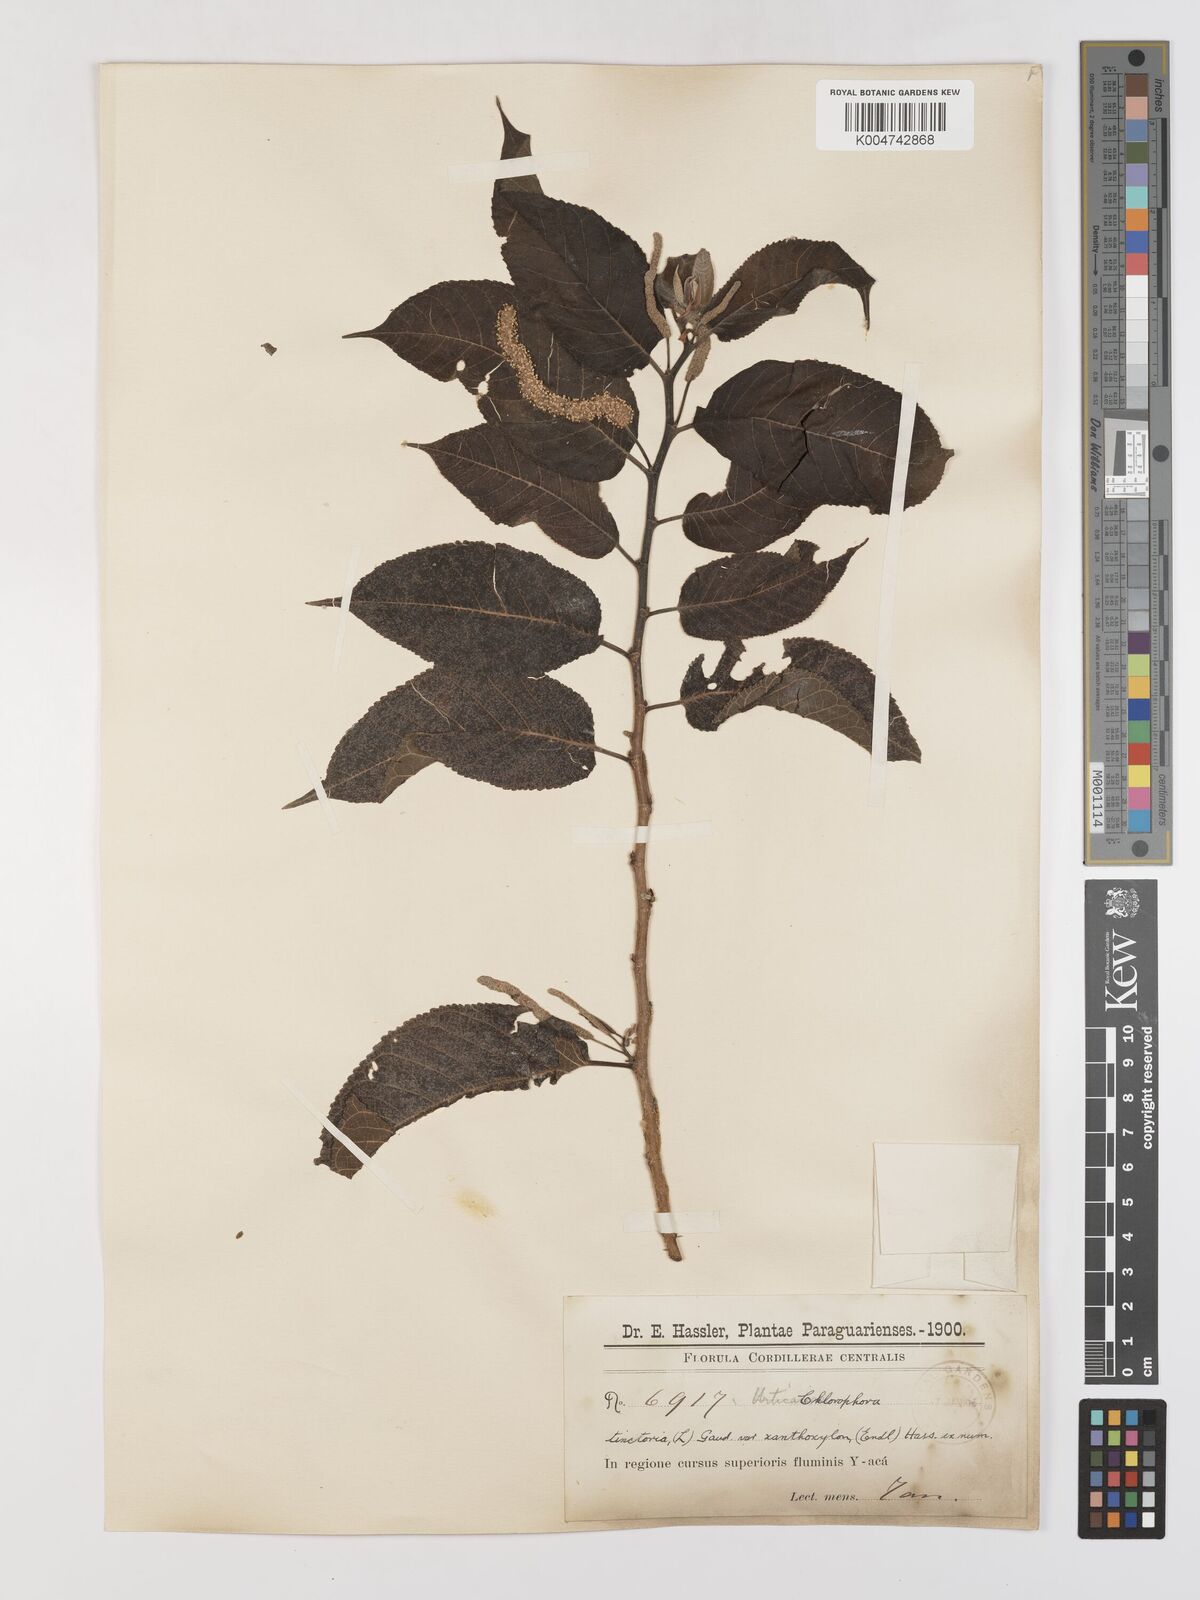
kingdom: Plantae
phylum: Tracheophyta
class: Magnoliopsida
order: Rosales
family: Moraceae
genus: Maclura
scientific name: Maclura tinctoria
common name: Old fustic
